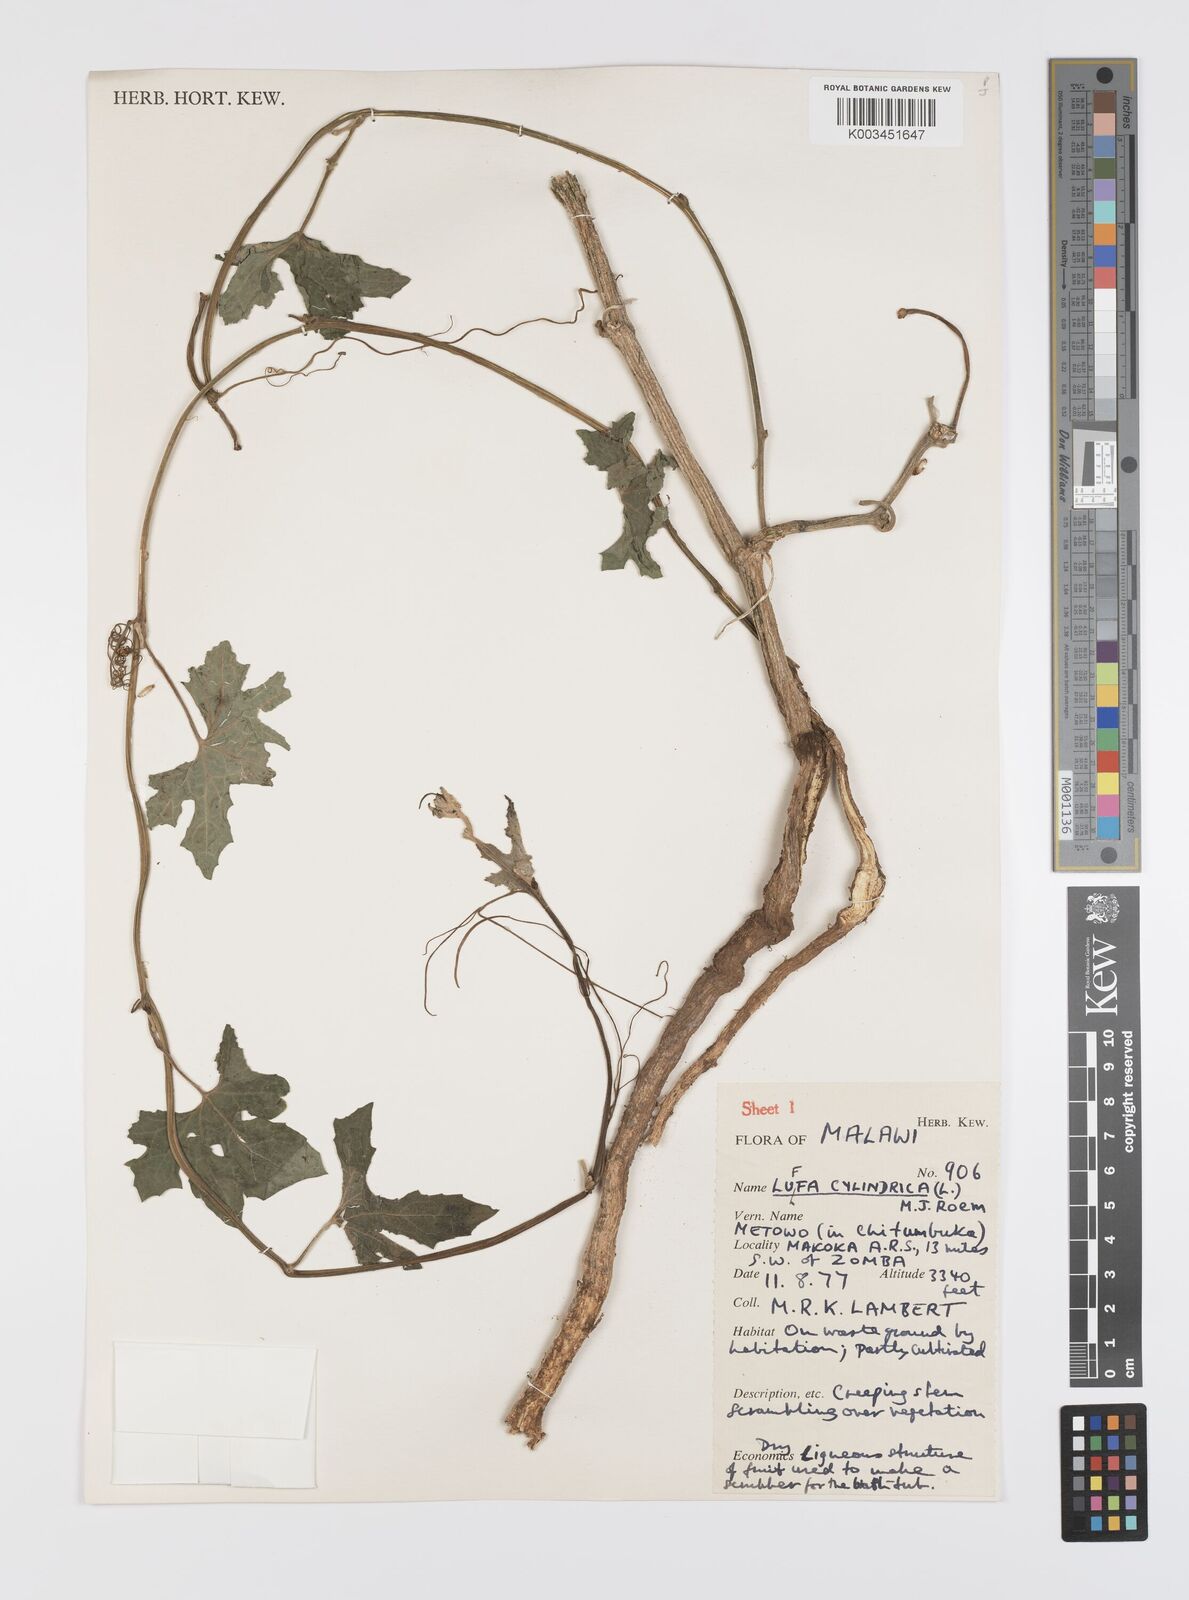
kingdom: Plantae
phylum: Tracheophyta
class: Magnoliopsida
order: Cucurbitales
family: Cucurbitaceae
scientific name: Cucurbitaceae
